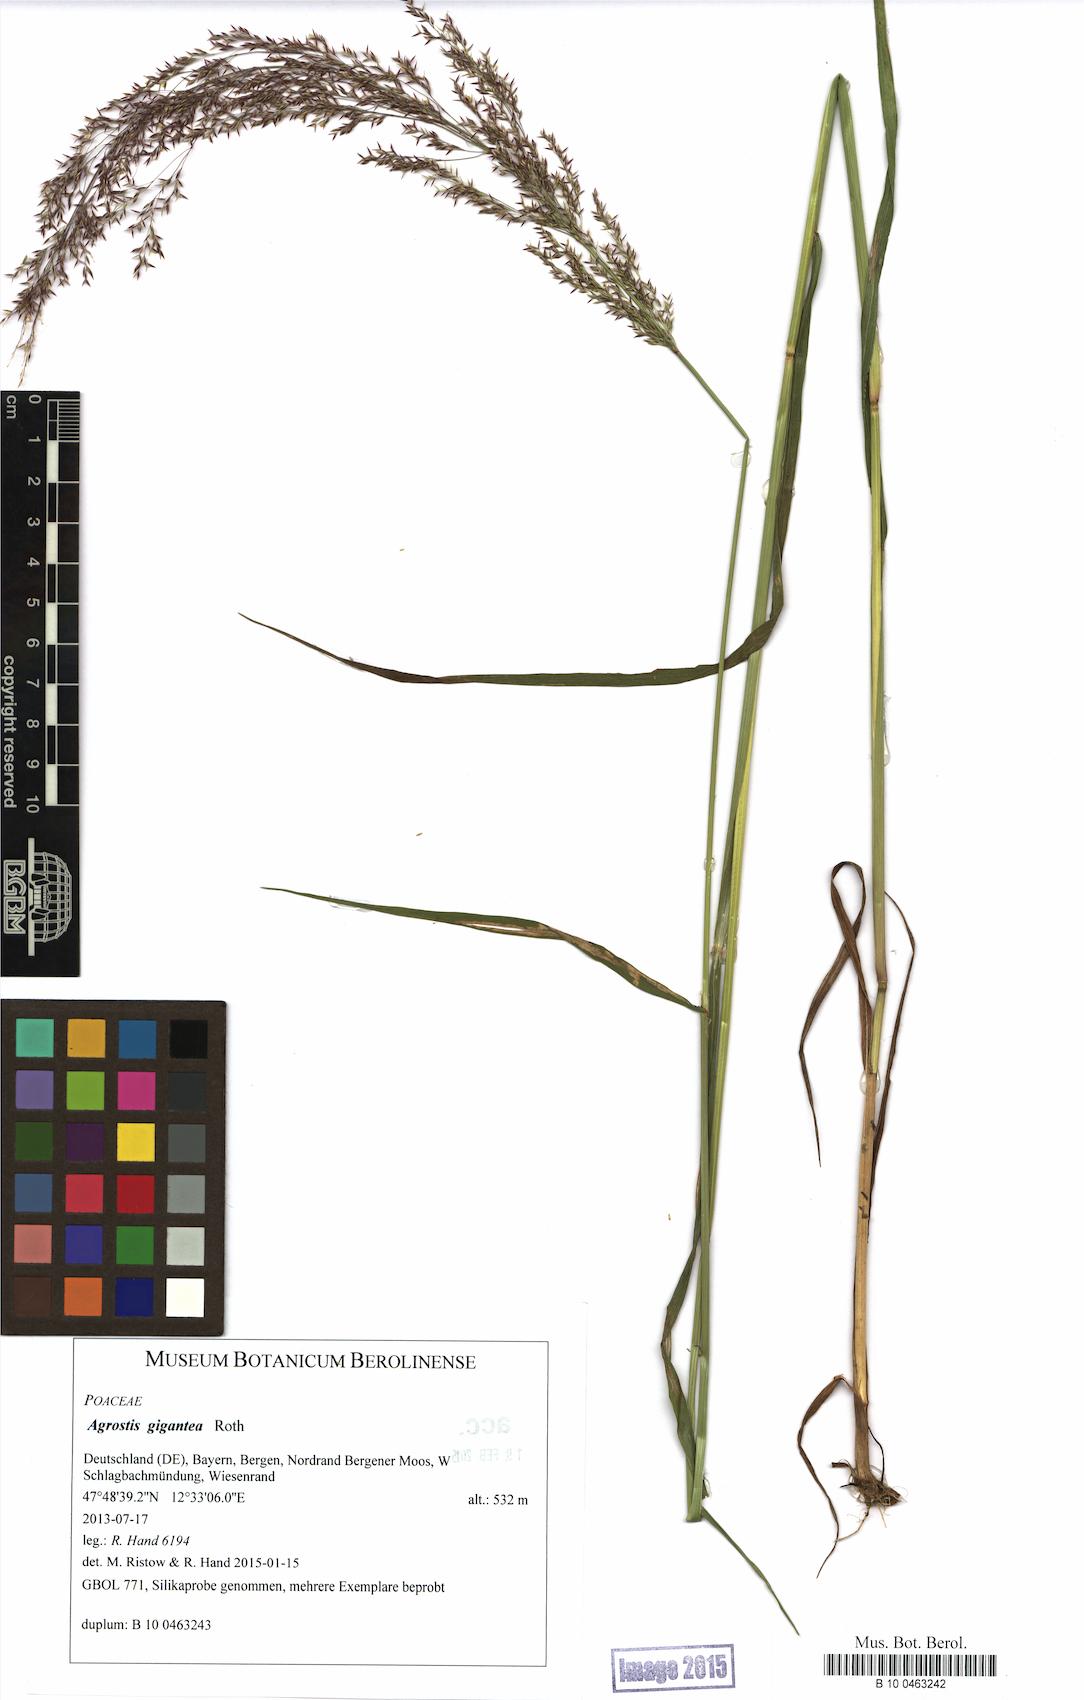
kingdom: Plantae
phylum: Tracheophyta
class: Liliopsida
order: Poales
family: Poaceae
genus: Agrostis
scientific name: Agrostis gigantea
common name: Black bent
